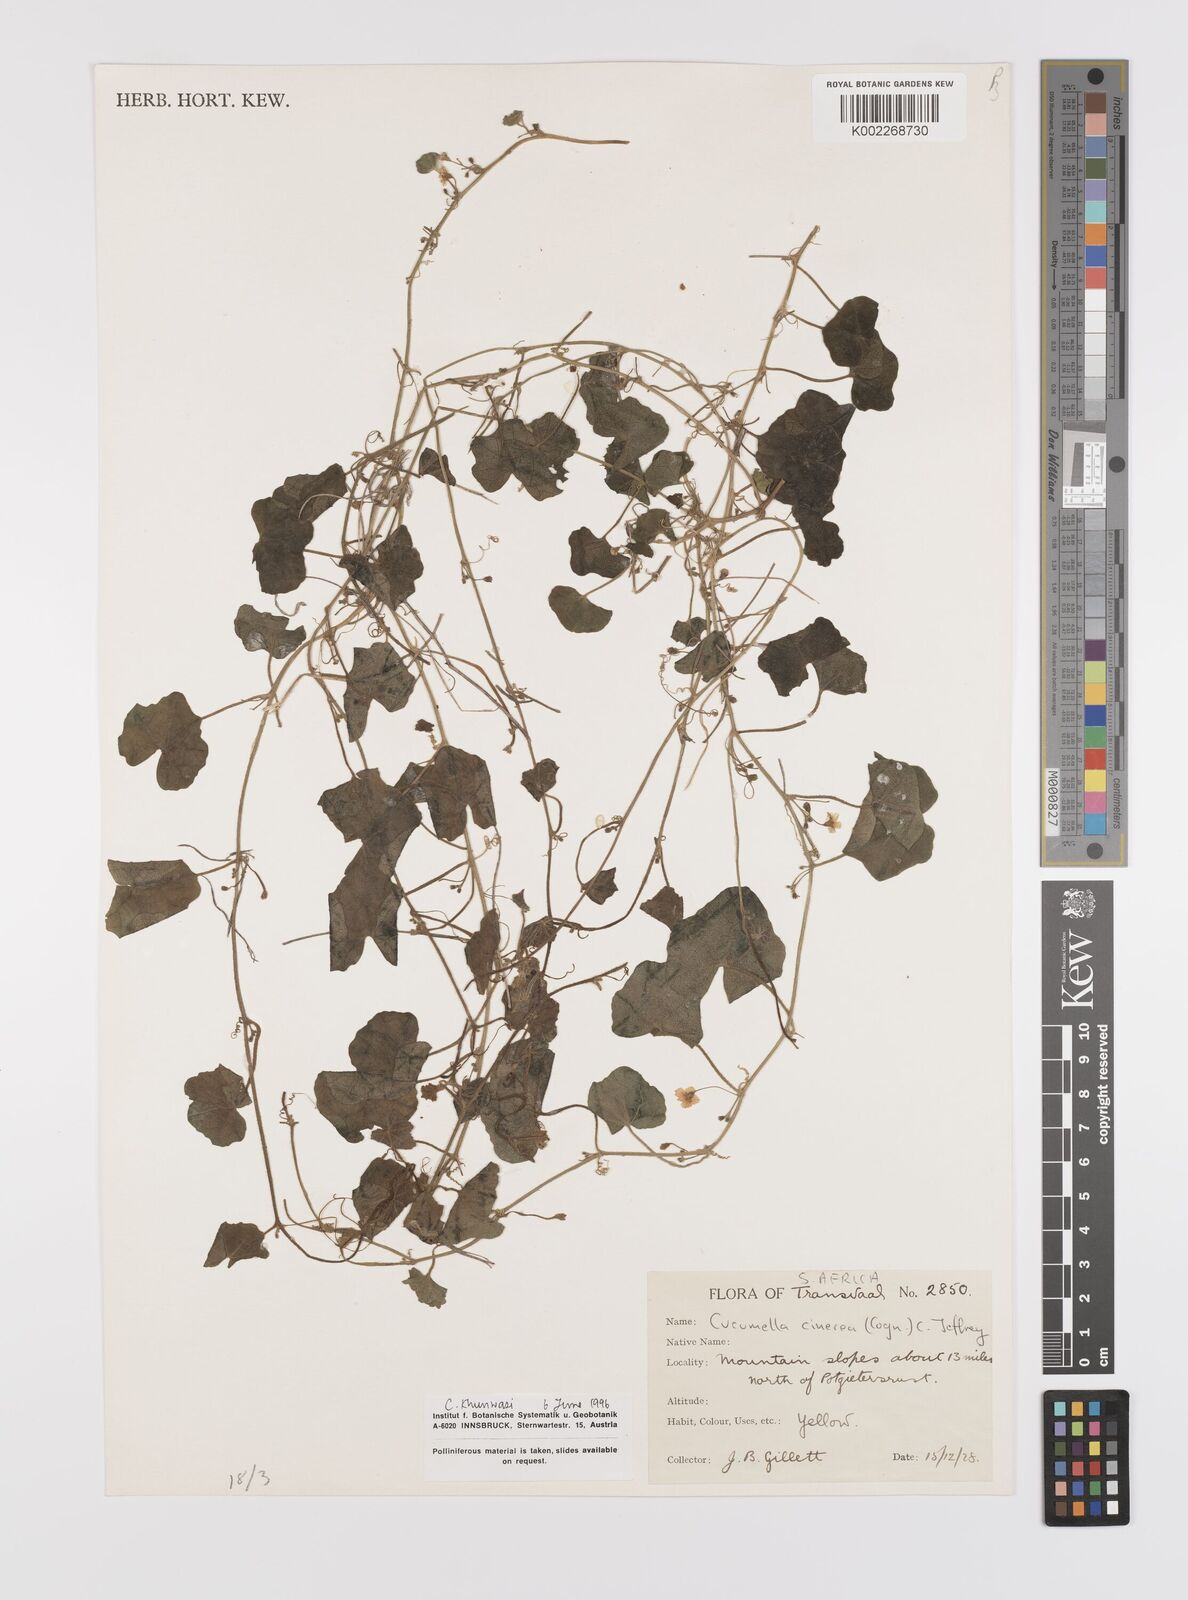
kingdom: Plantae
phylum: Tracheophyta
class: Magnoliopsida
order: Cucurbitales
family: Cucurbitaceae
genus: Cucumis
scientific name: Cucumis cinereus
